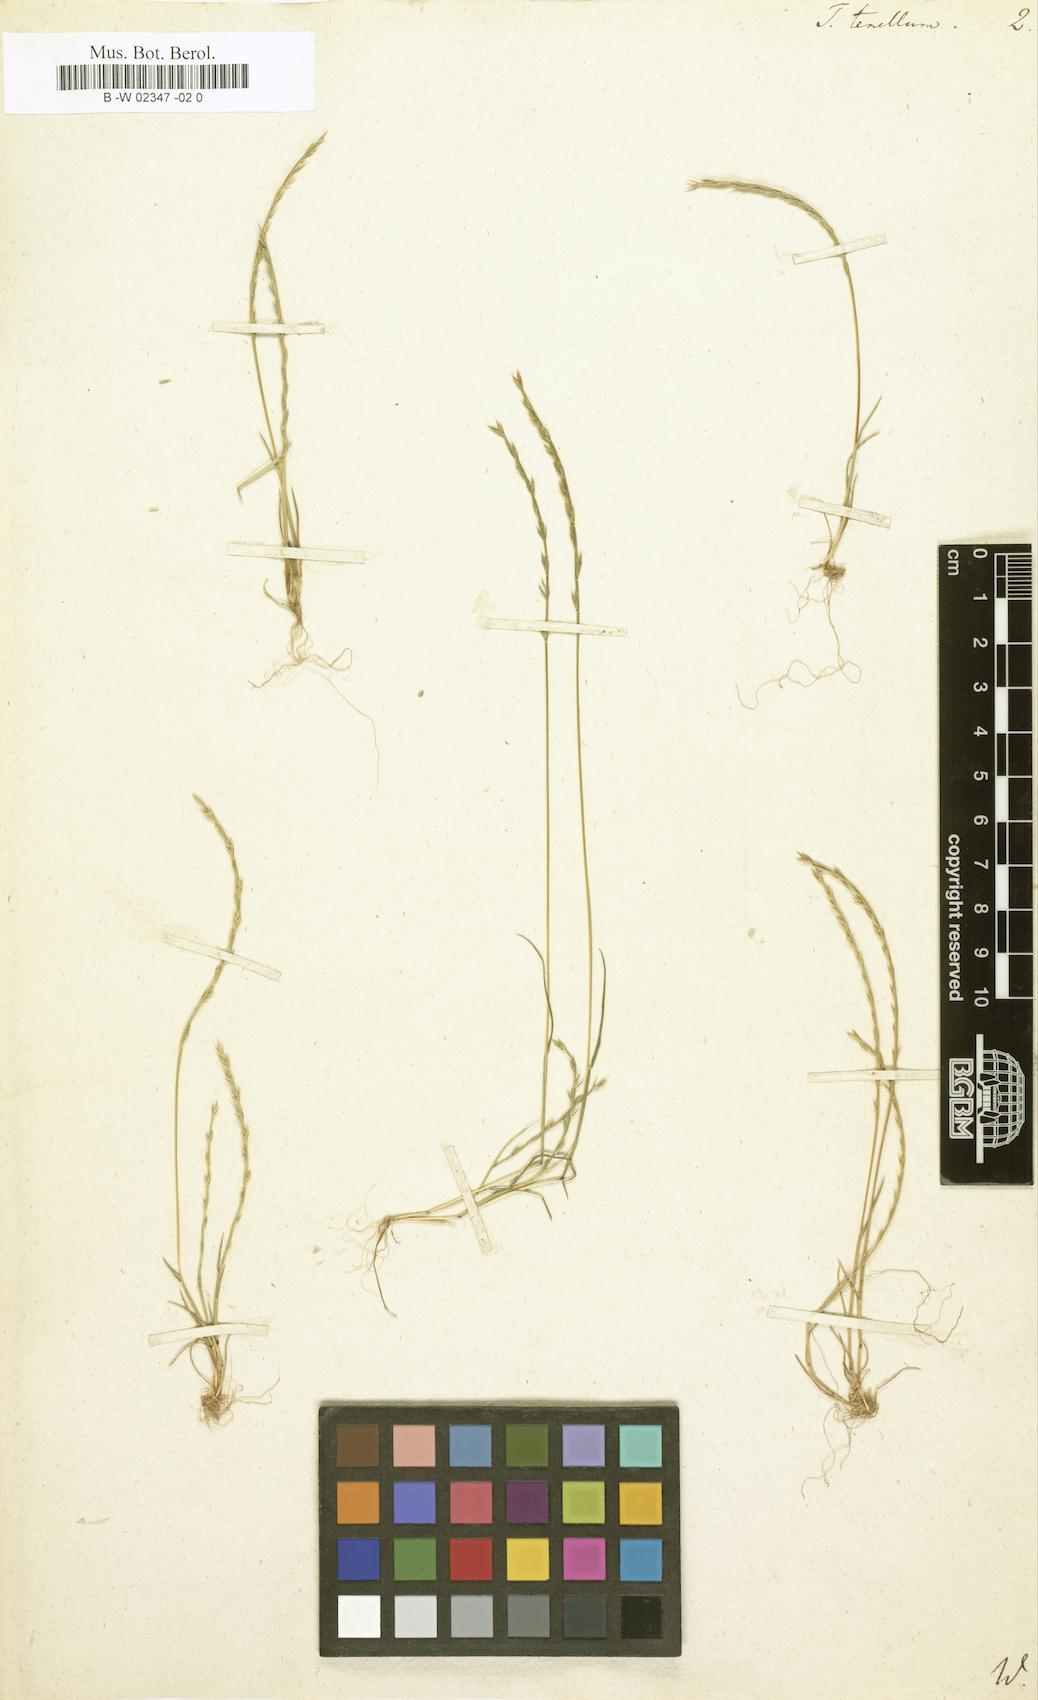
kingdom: Plantae
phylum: Tracheophyta
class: Liliopsida
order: Poales
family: Poaceae
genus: Triticum
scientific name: Triticum tenellum
